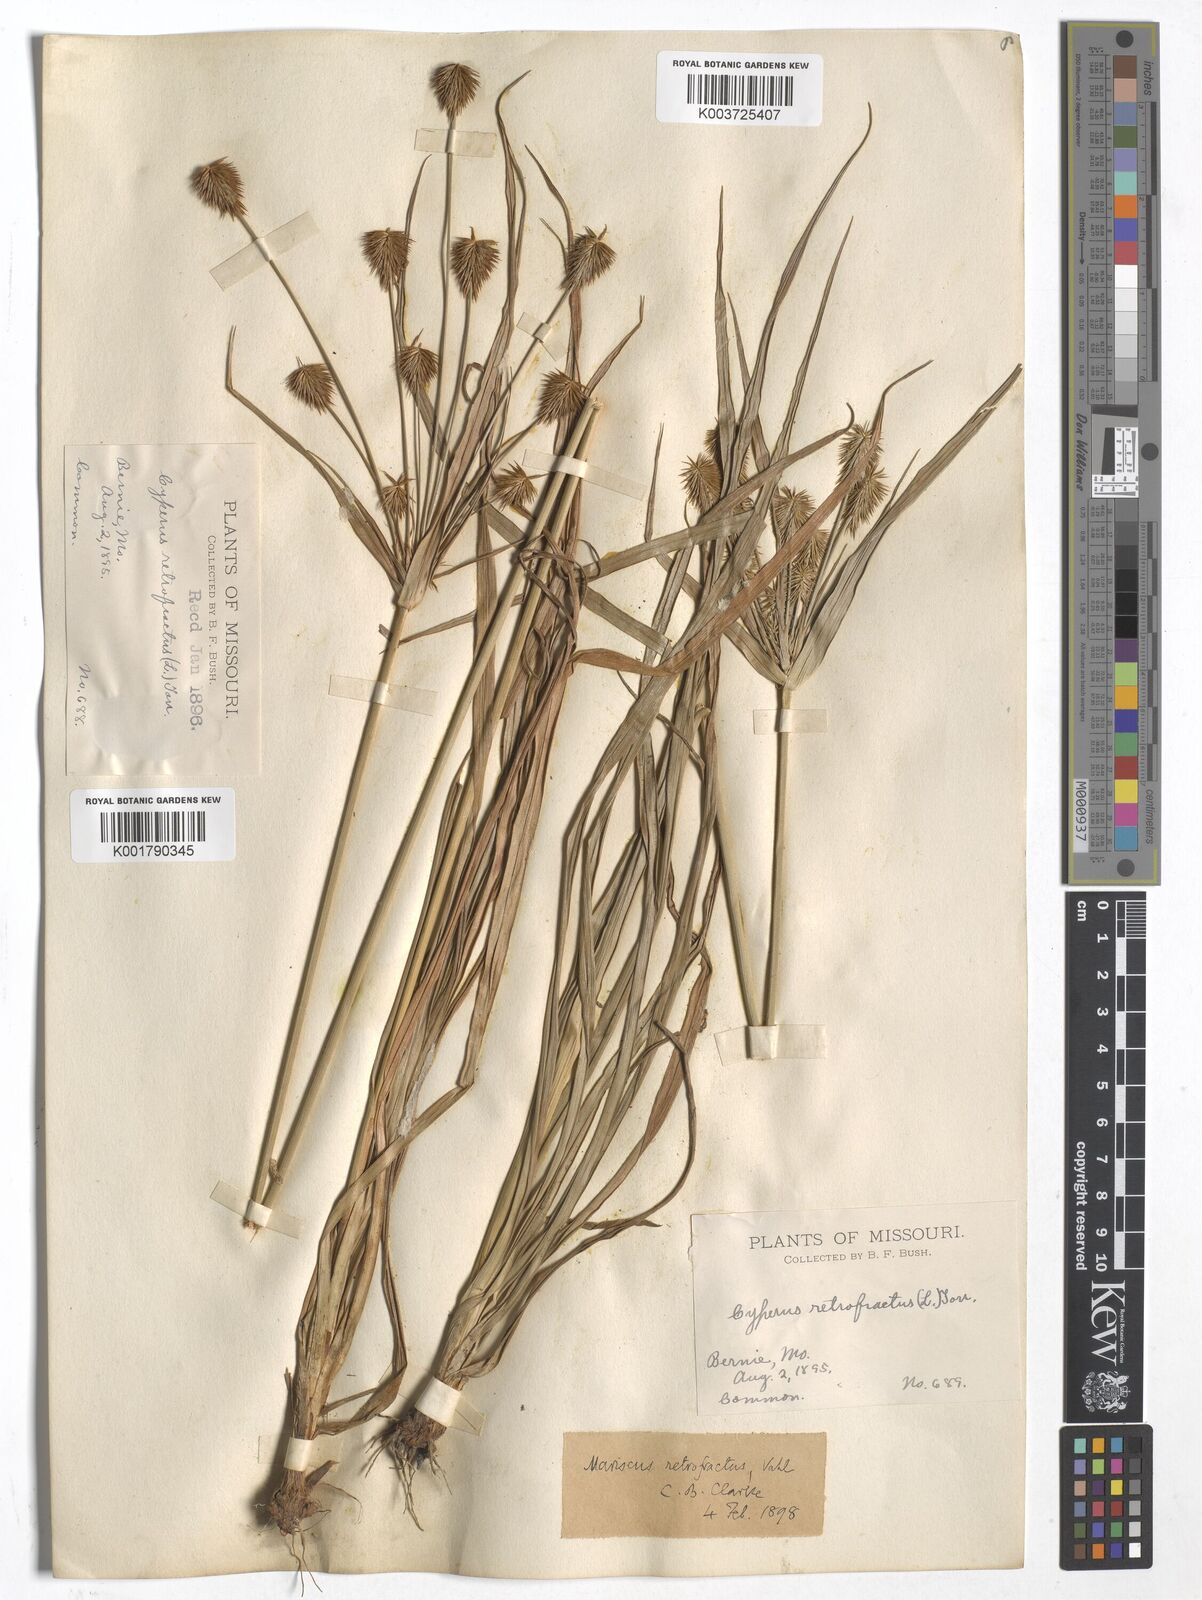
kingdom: Plantae
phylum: Tracheophyta
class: Liliopsida
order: Poales
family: Cyperaceae
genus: Cyperus
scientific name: Cyperus retrofractus
